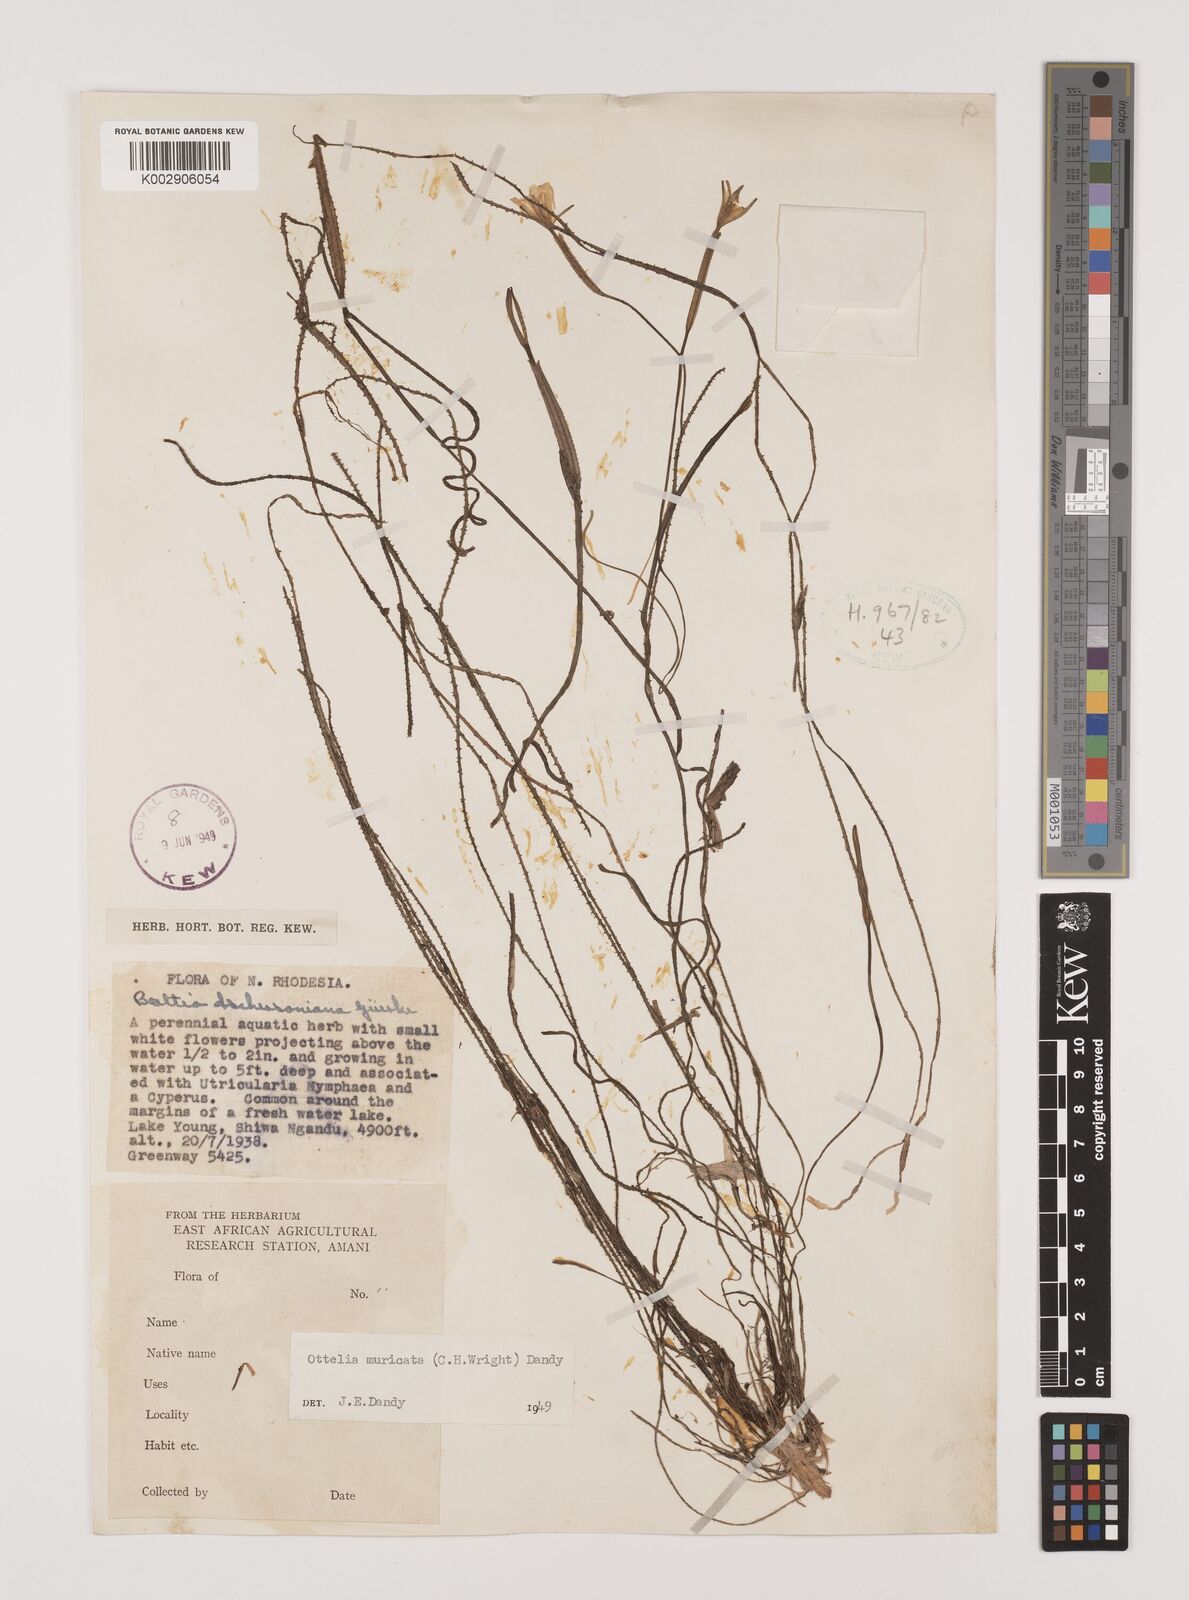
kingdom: Plantae
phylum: Tracheophyta
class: Liliopsida
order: Alismatales
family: Hydrocharitaceae
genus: Ottelia
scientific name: Ottelia muricata
